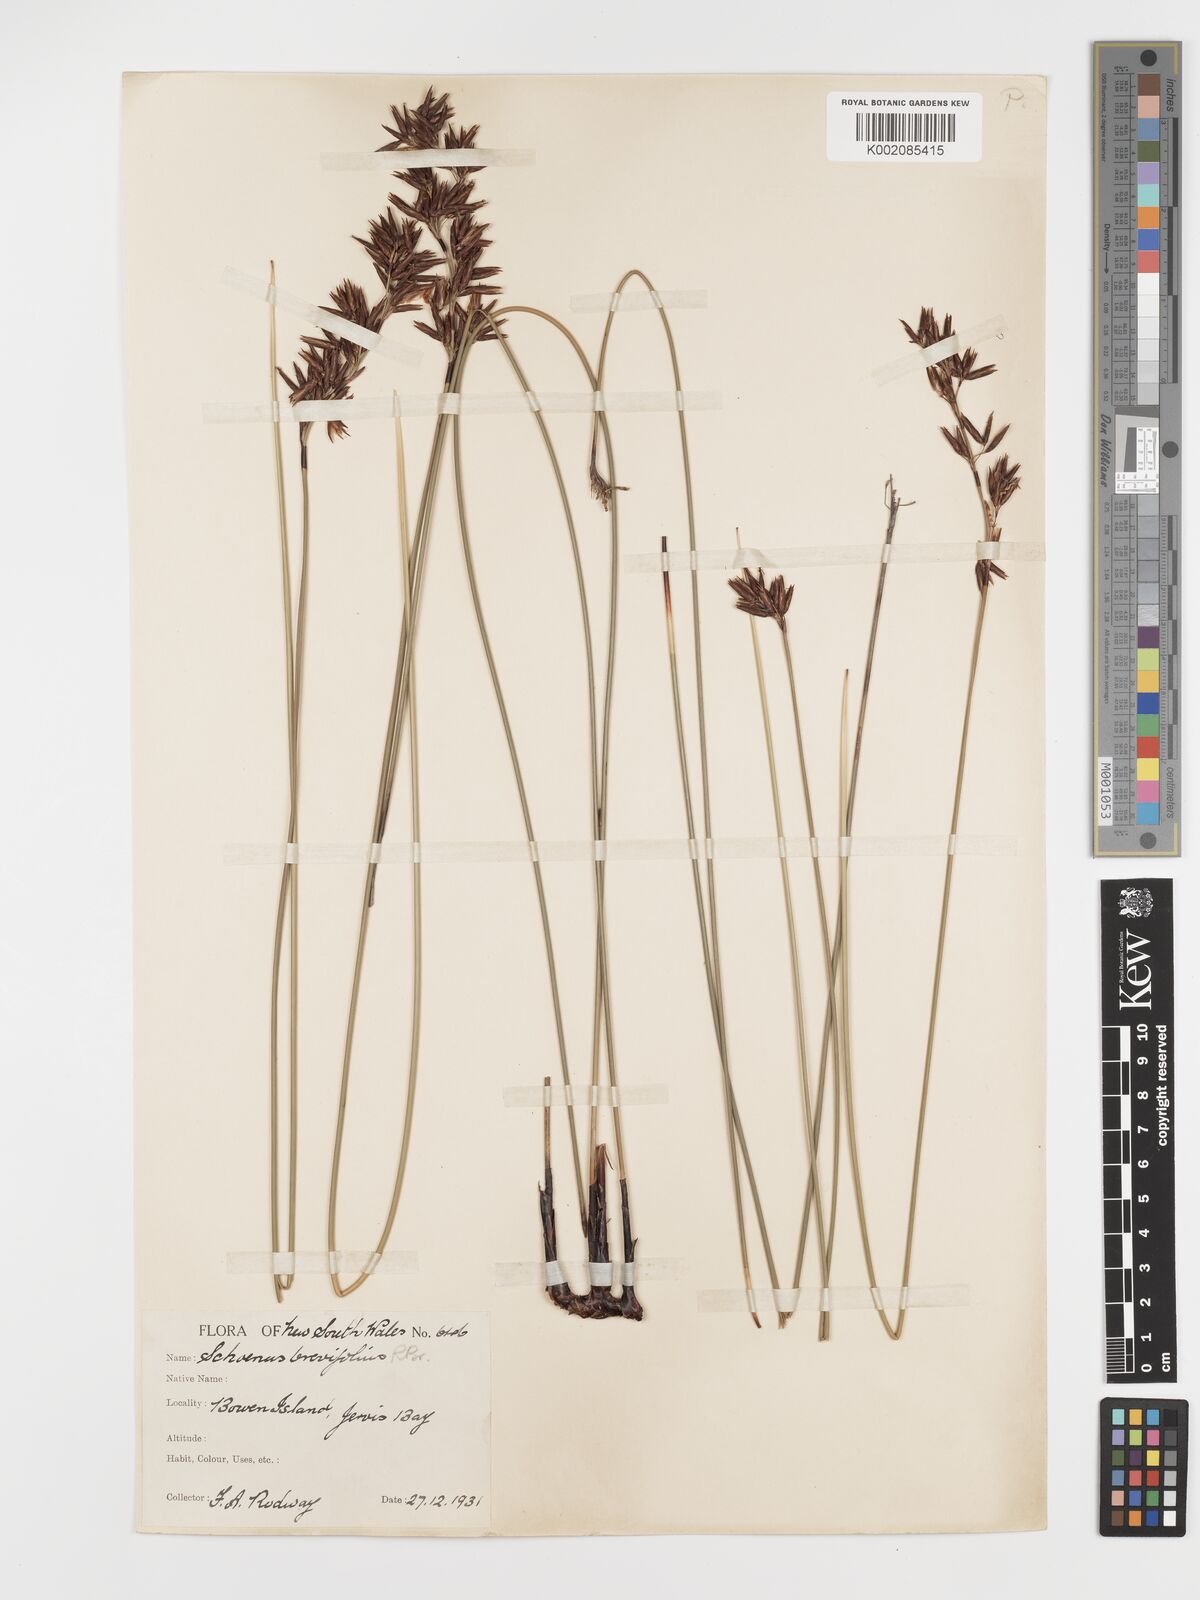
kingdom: Plantae
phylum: Tracheophyta
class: Liliopsida
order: Poales
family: Cyperaceae
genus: Schoenus
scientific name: Schoenus brevifolius
